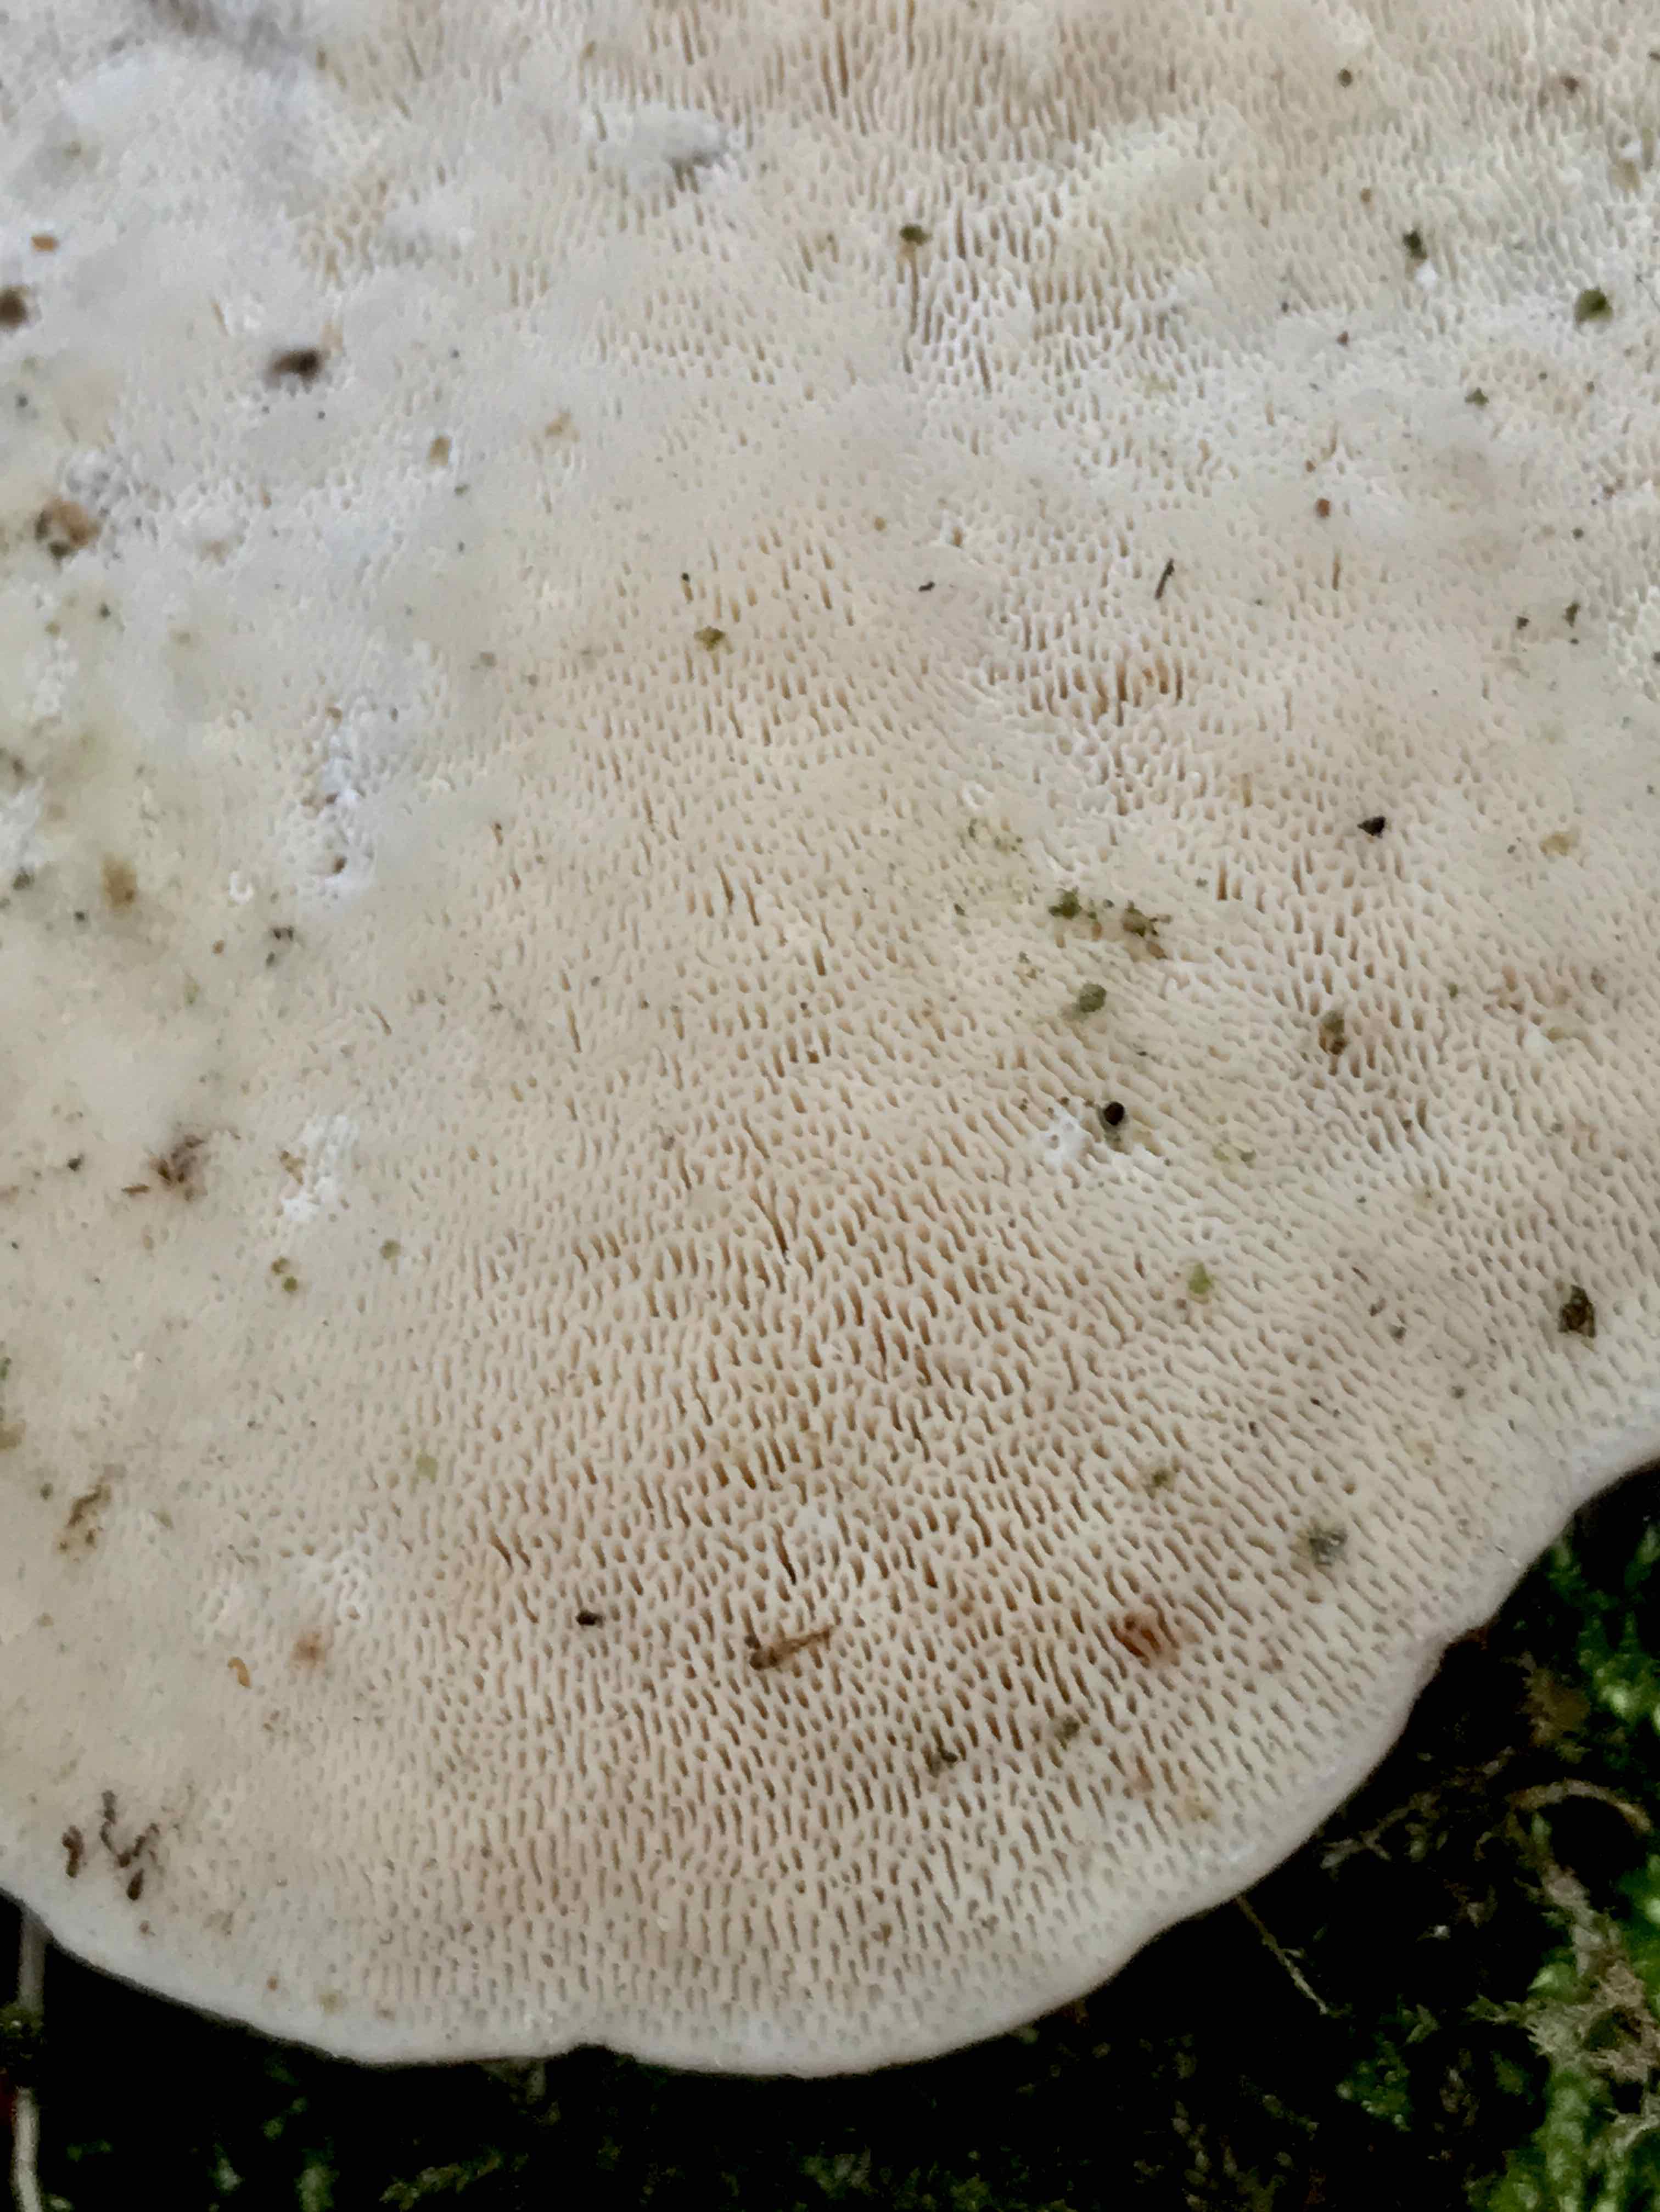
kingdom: Fungi
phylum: Basidiomycota
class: Agaricomycetes
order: Polyporales
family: Polyporaceae
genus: Trametes
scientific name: Trametes gibbosa
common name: puklet læderporesvamp
